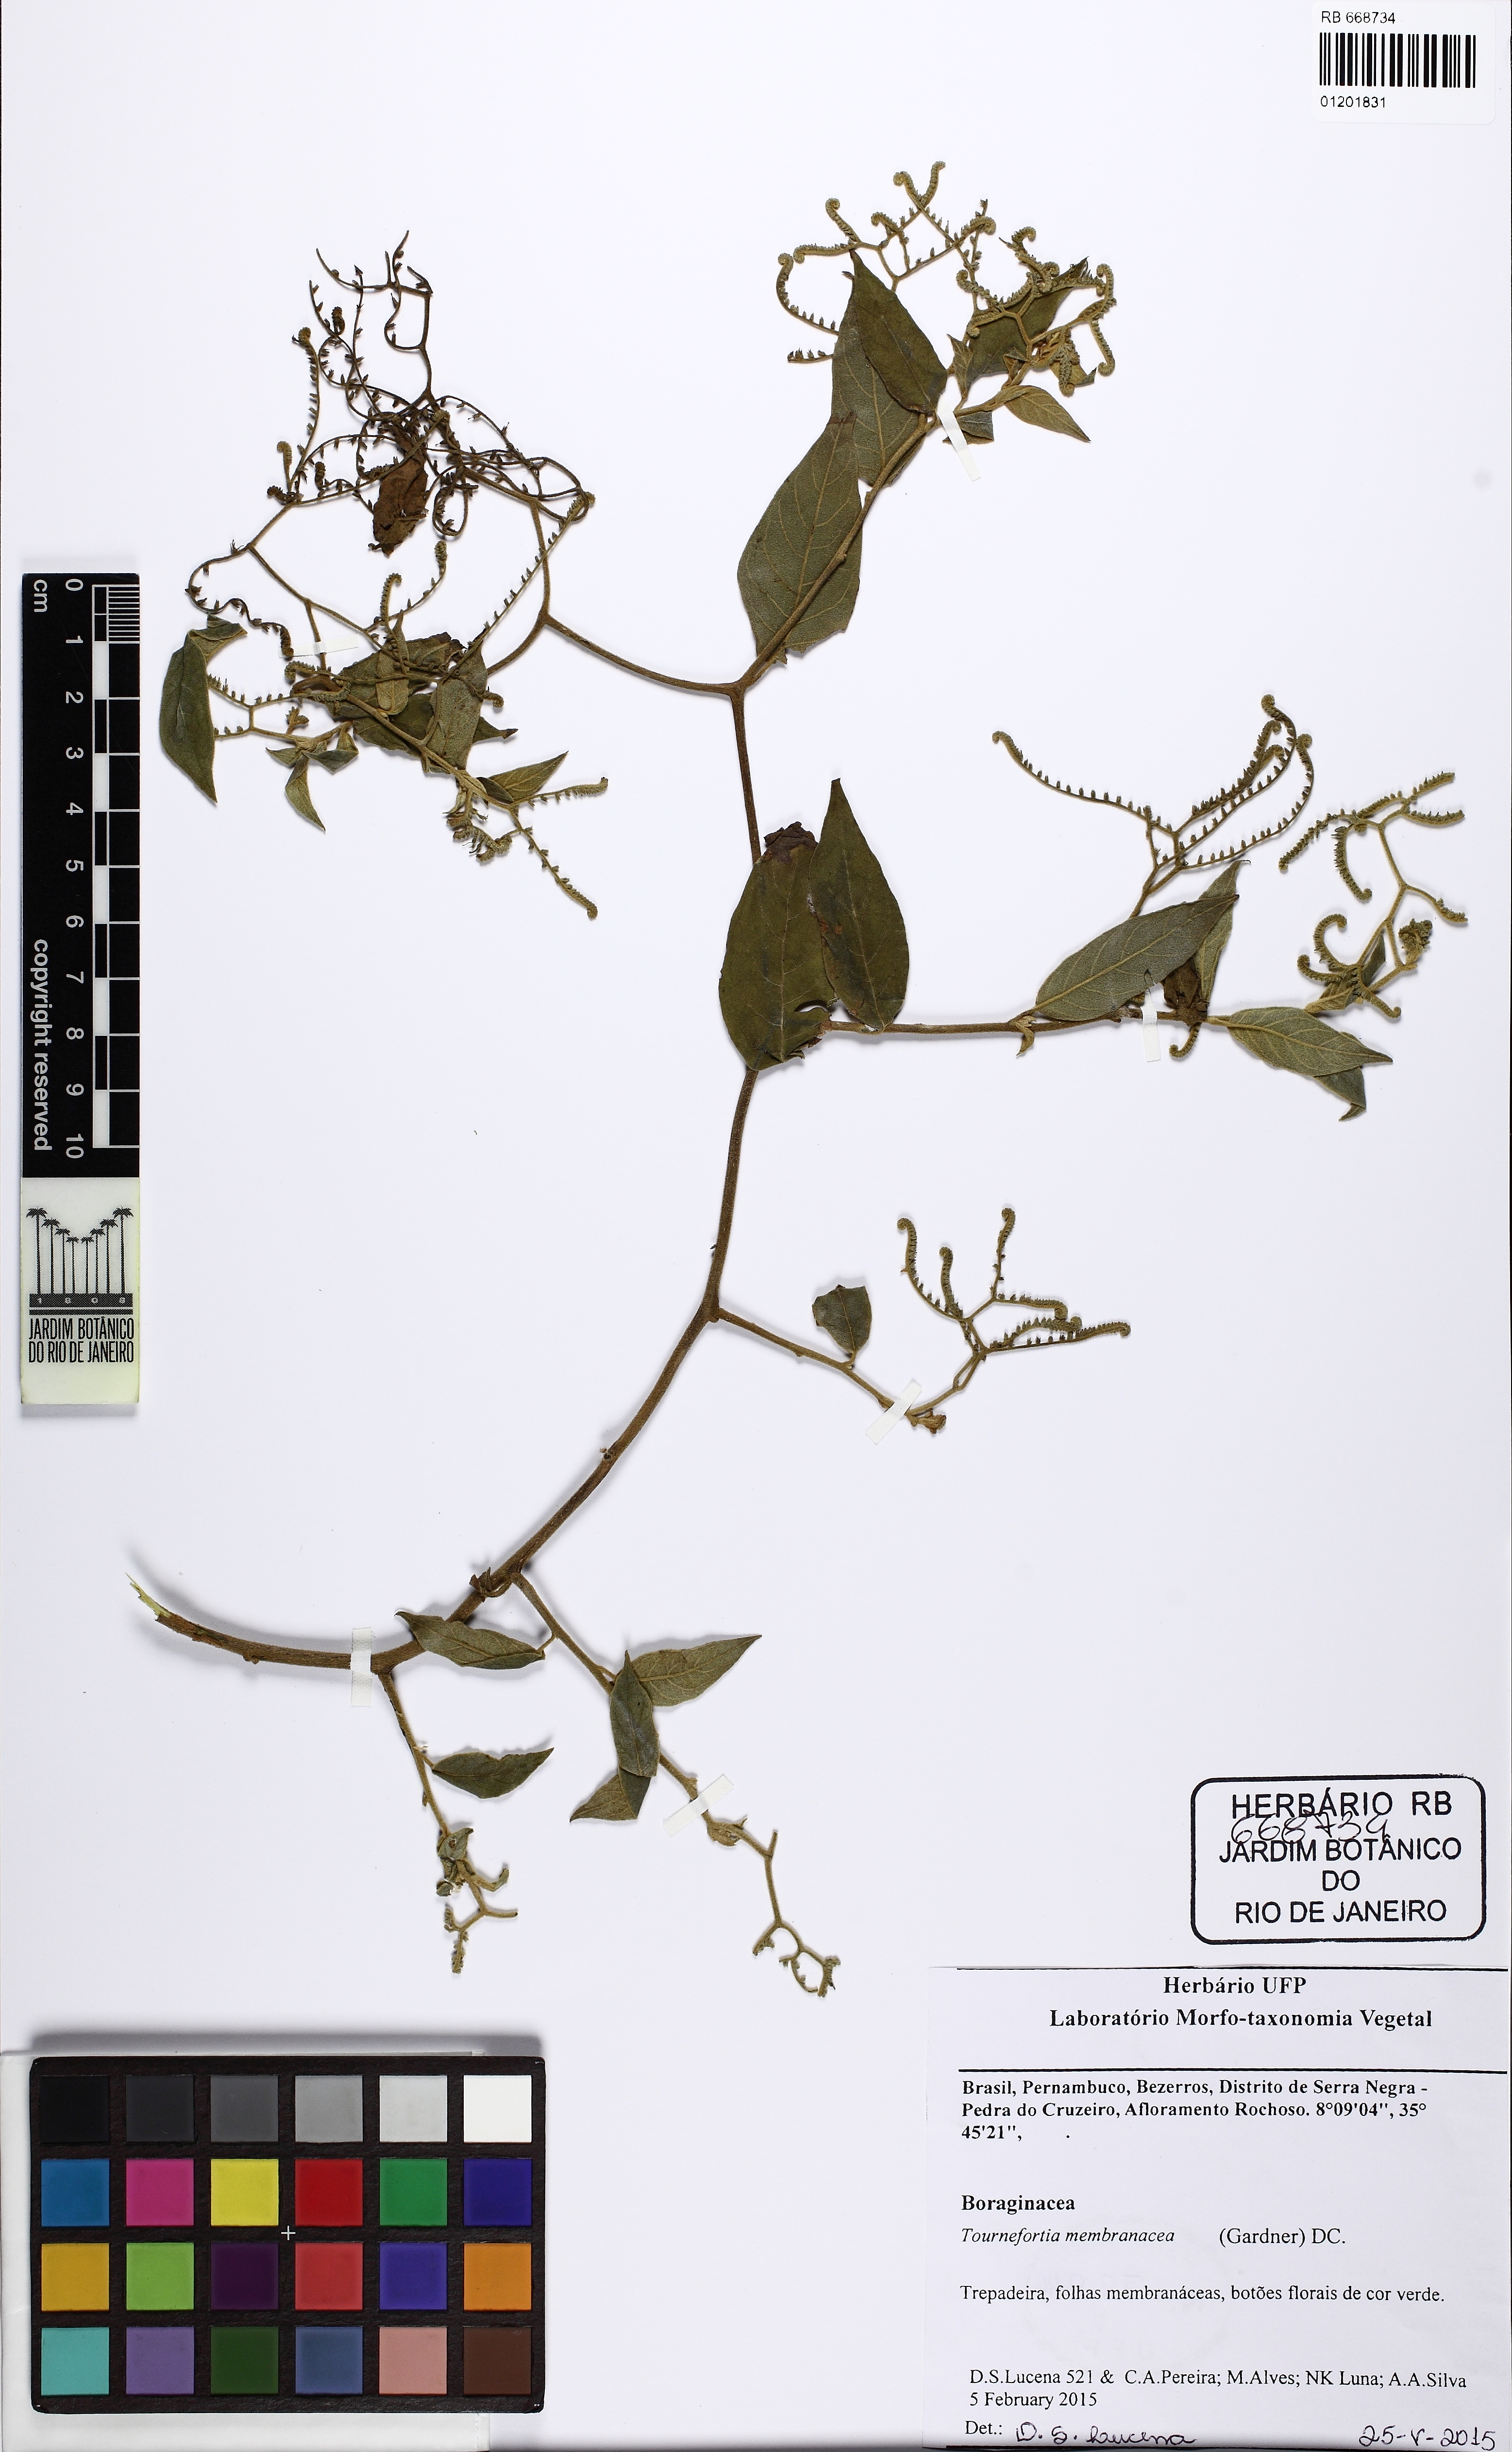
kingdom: Plantae
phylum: Tracheophyta
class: Magnoliopsida
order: Boraginales
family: Heliotropiaceae
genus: Myriopus
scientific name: Myriopus membranaceus
